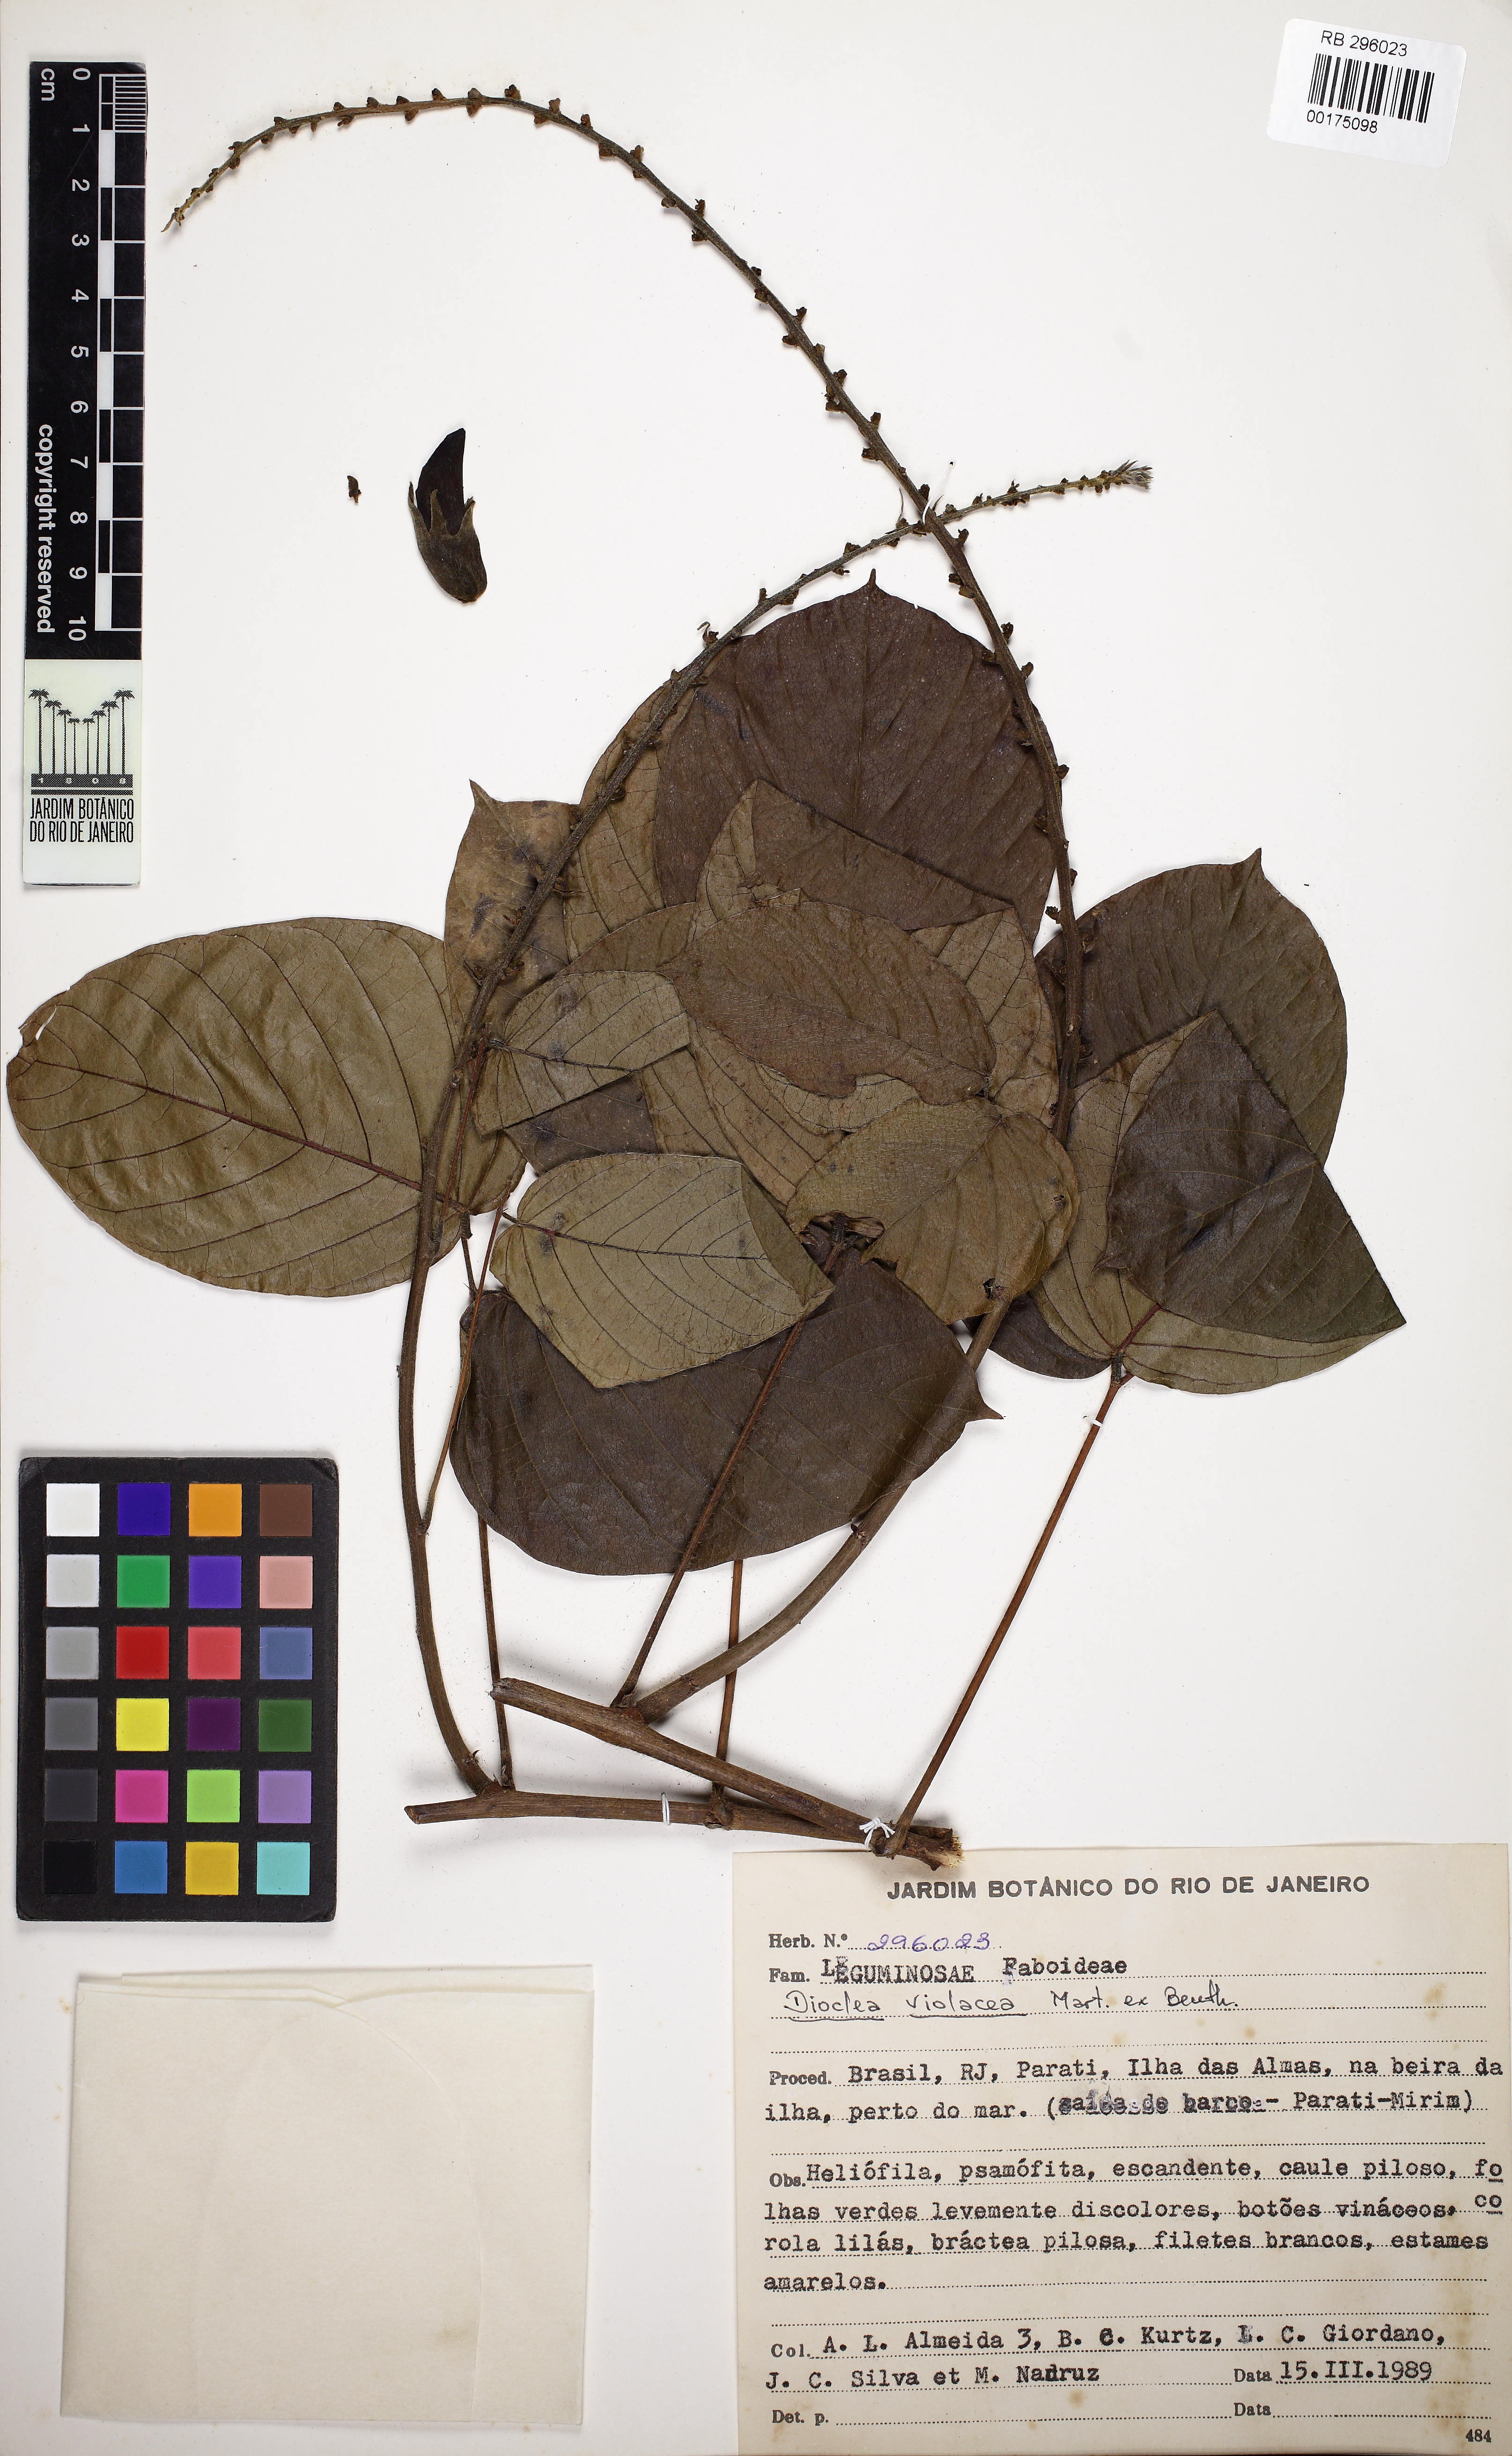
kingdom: Plantae
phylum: Tracheophyta
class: Magnoliopsida
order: Fabales
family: Fabaceae
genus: Macropsychanthus
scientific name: Macropsychanthus violaceus
